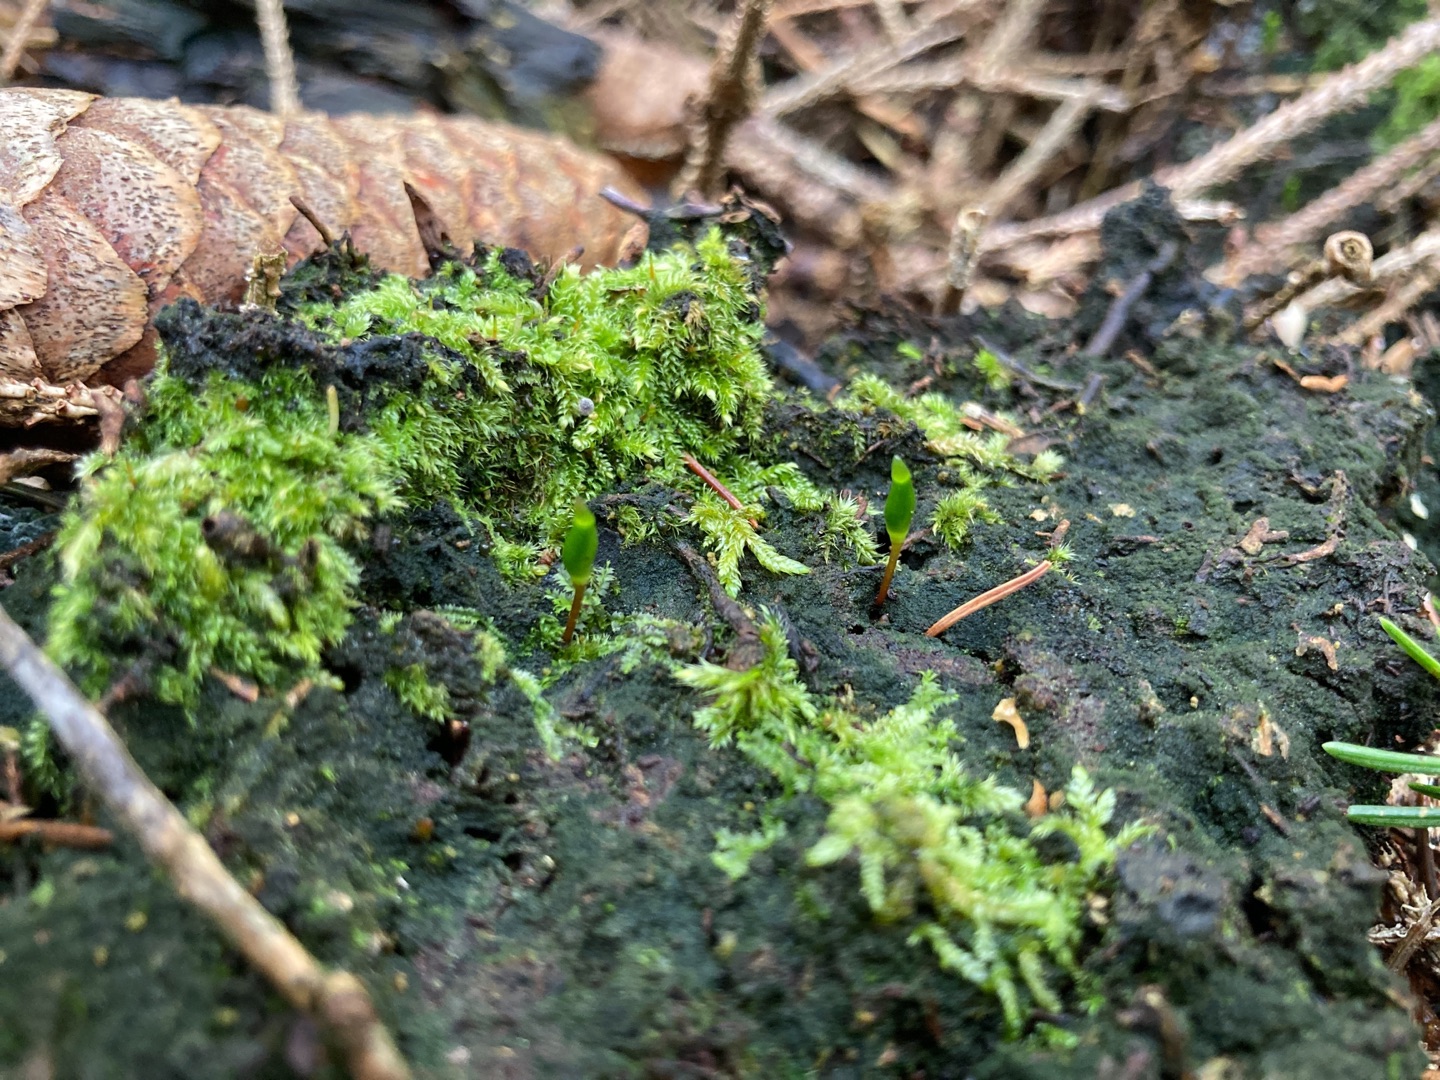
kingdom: Plantae
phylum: Bryophyta
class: Bryopsida
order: Buxbaumiales
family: Buxbaumiaceae
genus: Buxbaumia
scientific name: Buxbaumia viridis
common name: Grøn buxbaumia
